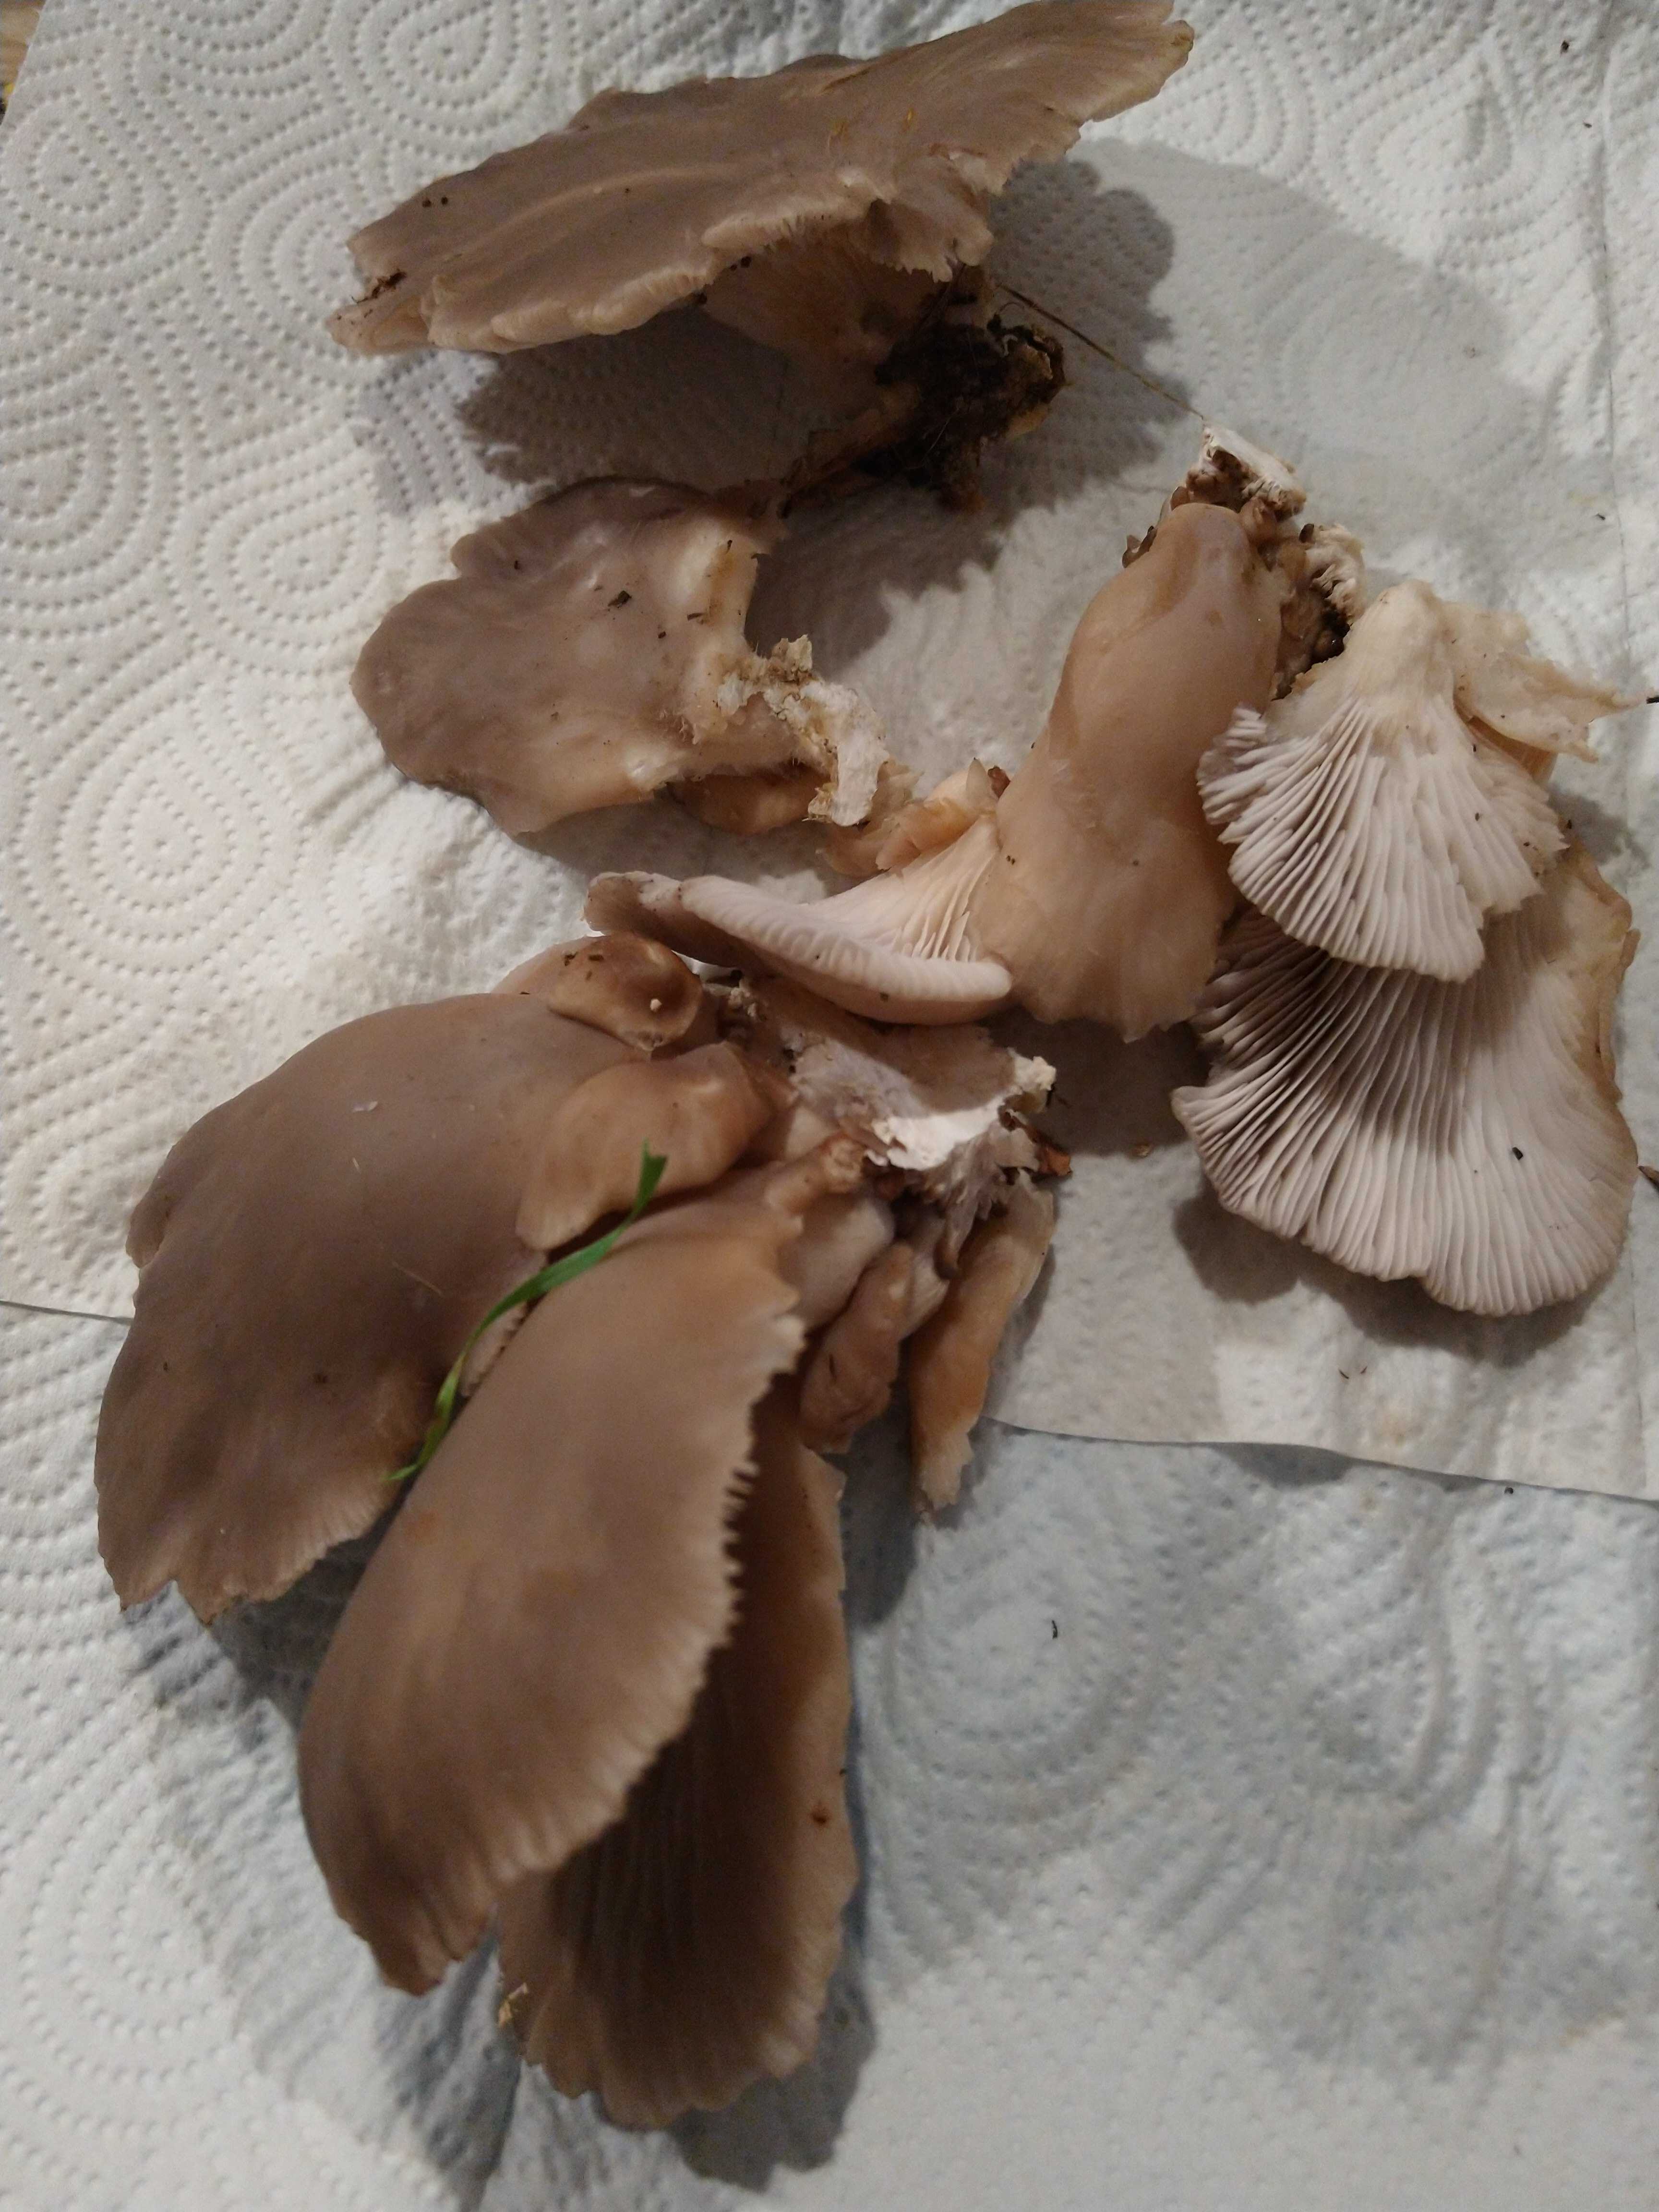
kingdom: Fungi
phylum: Basidiomycota
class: Agaricomycetes
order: Agaricales
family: Pleurotaceae
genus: Pleurotus
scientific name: Pleurotus ostreatus
